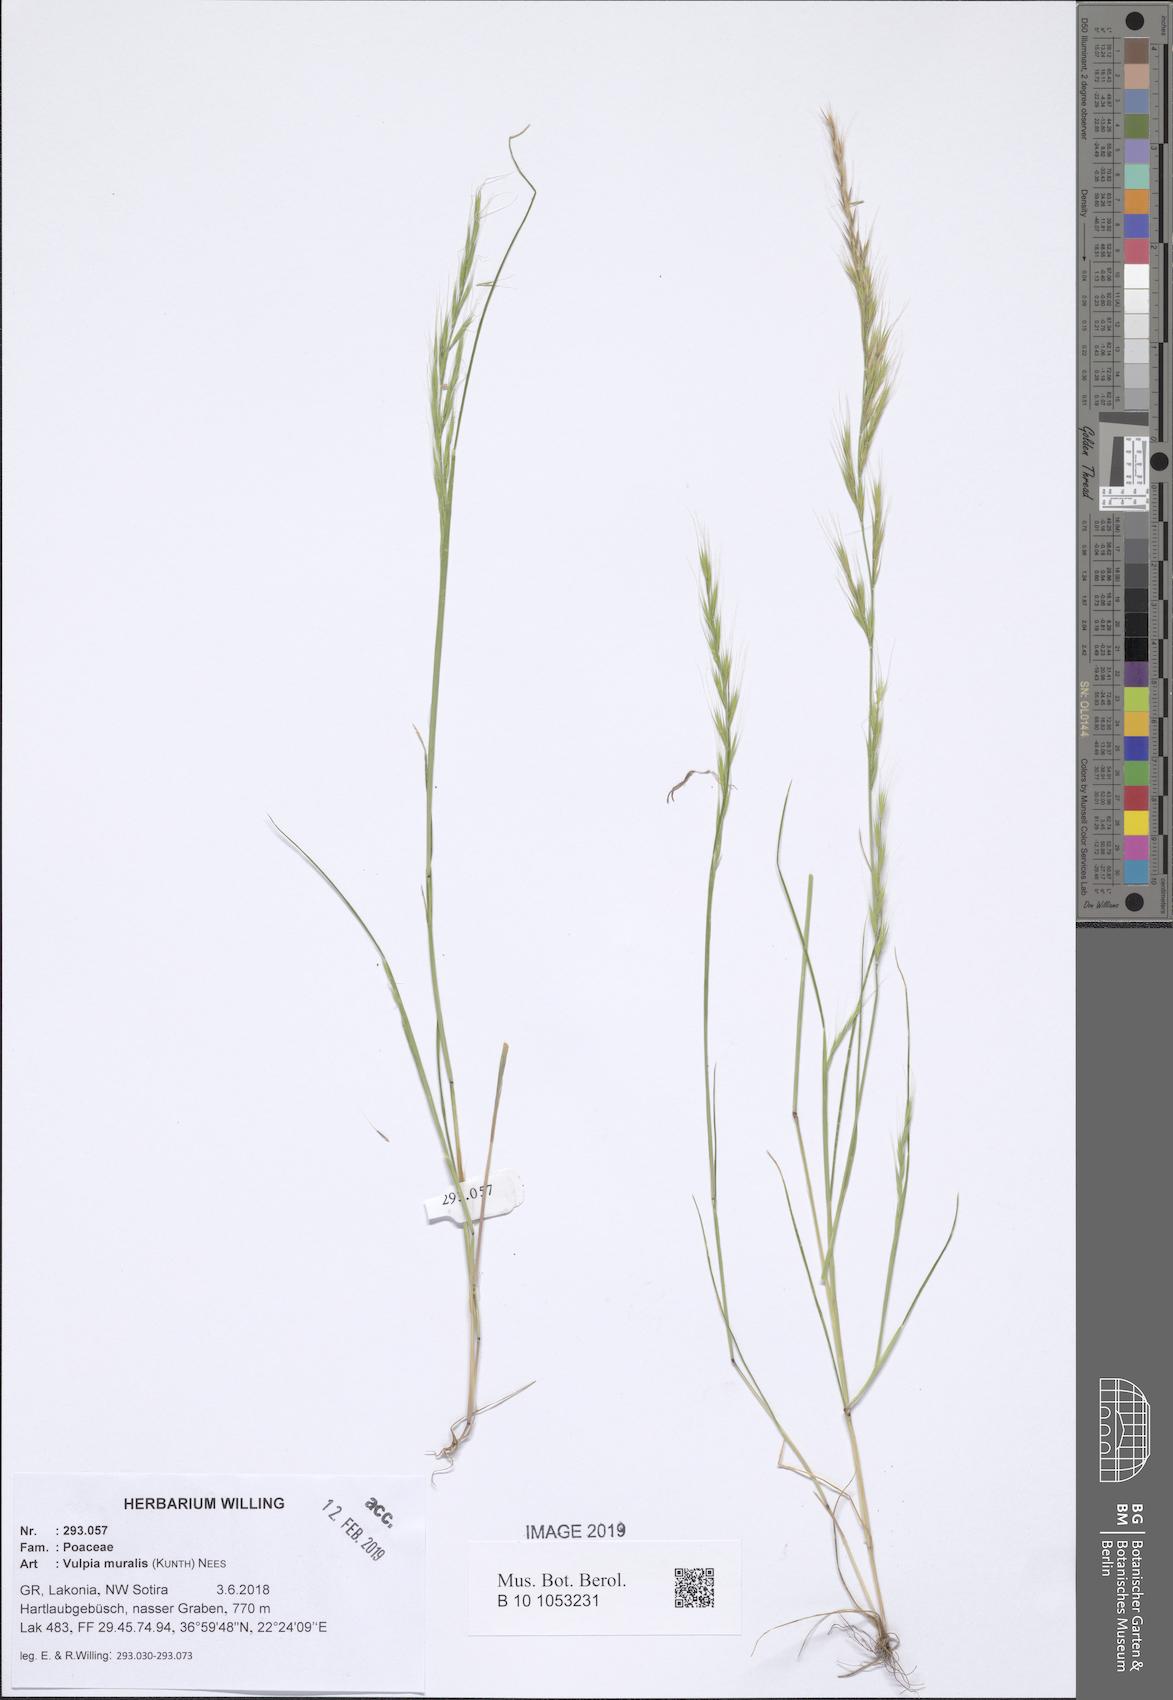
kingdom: Plantae
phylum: Tracheophyta
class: Liliopsida
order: Poales
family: Poaceae
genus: Festuca
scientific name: Festuca muralis
